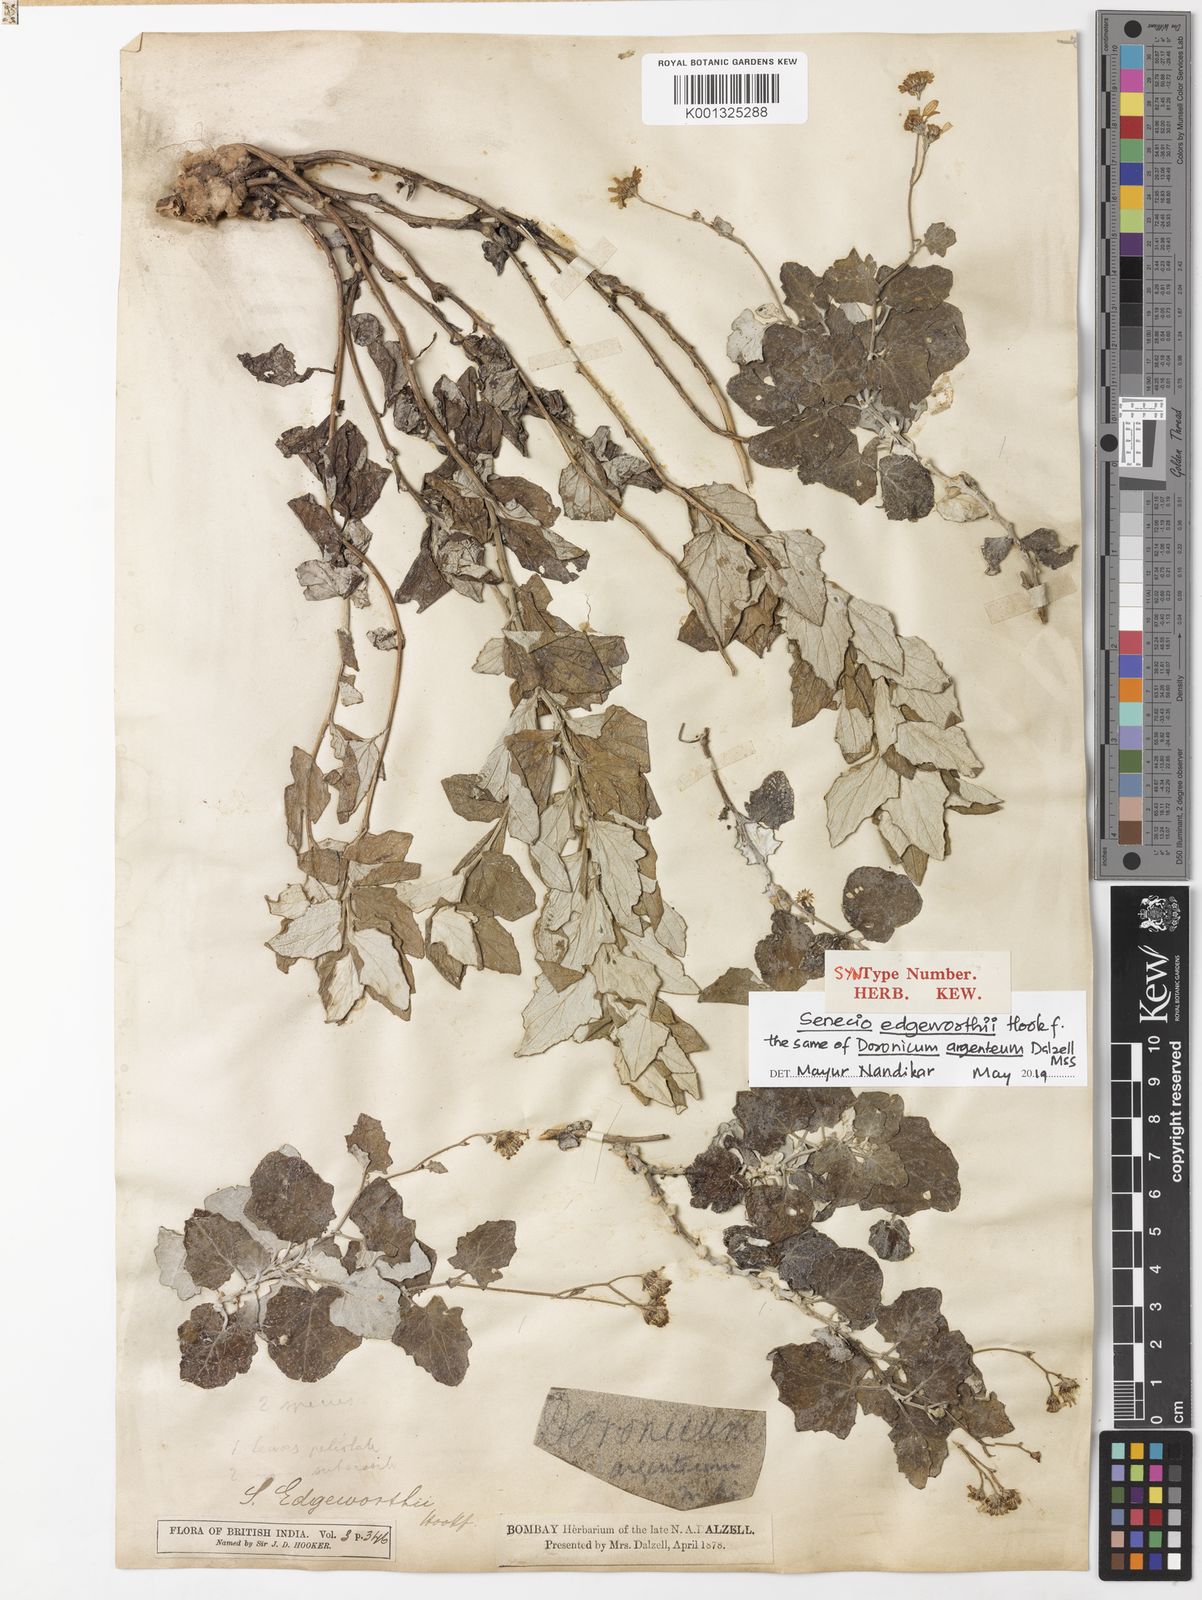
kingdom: Plantae
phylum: Tracheophyta
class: Magnoliopsida
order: Asterales
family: Asteraceae
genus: Senecio
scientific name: Senecio edgeworthii
